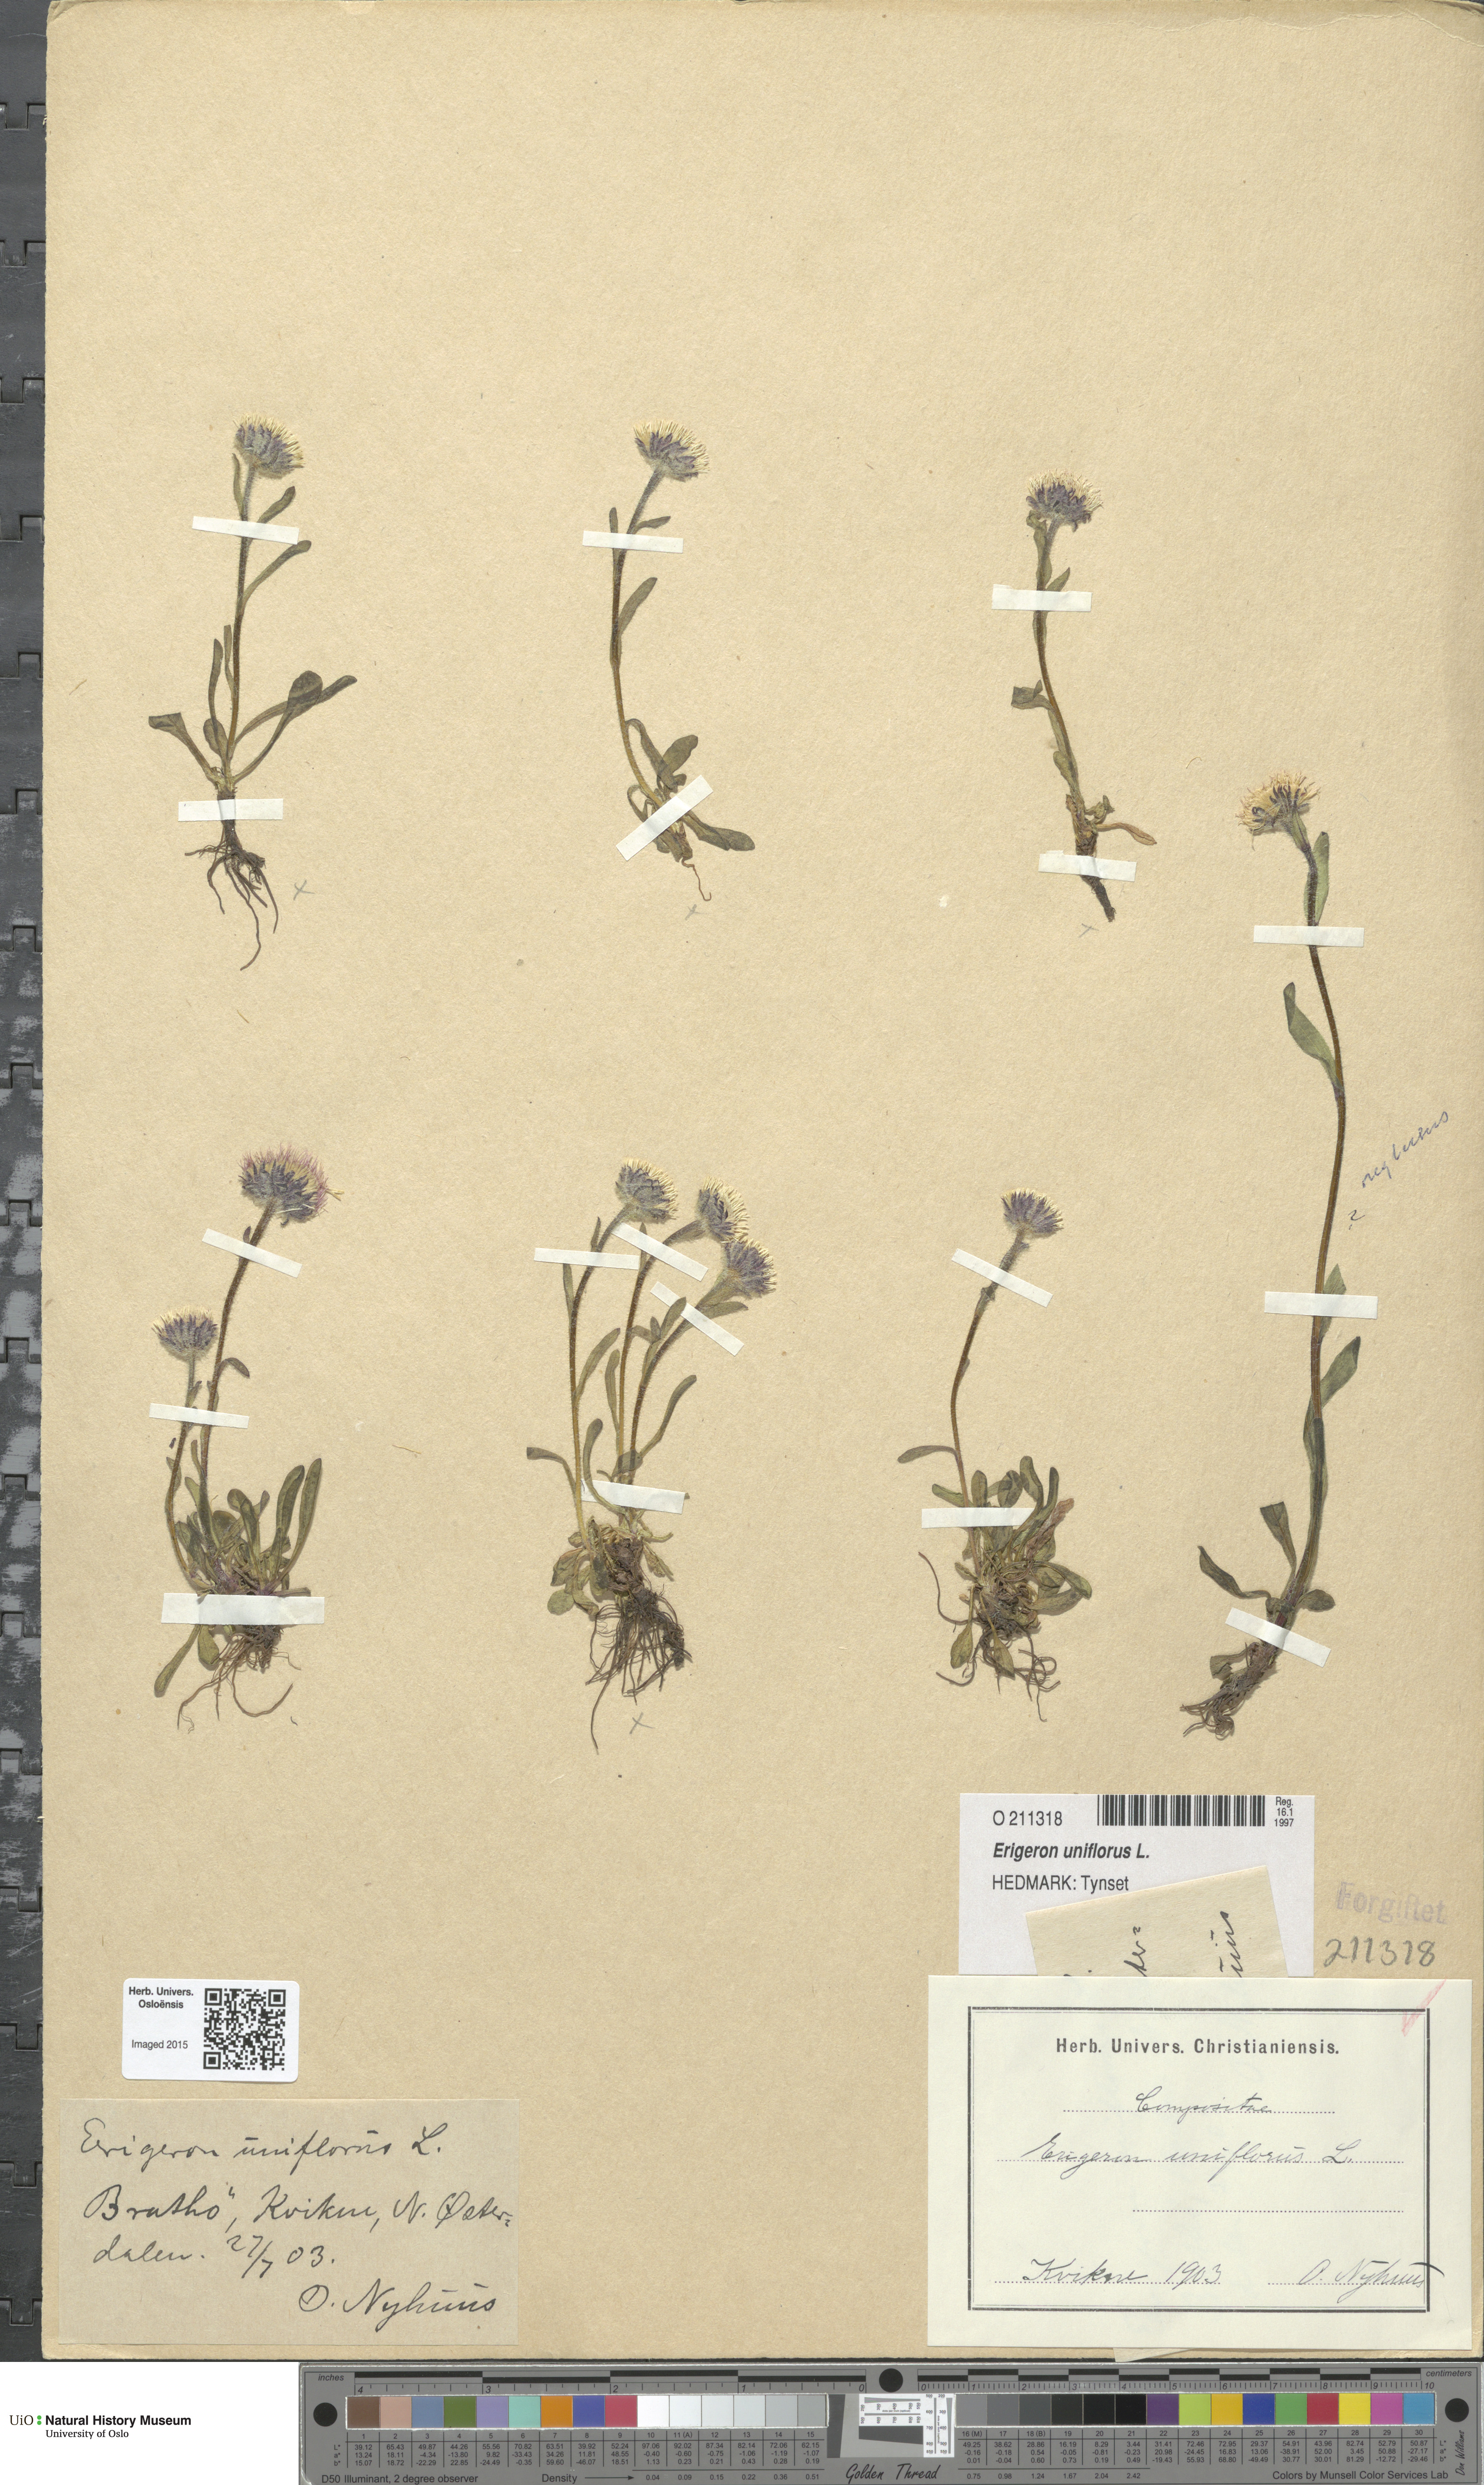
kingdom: Plantae
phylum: Tracheophyta
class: Magnoliopsida
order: Asterales
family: Asteraceae
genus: Erigeron
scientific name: Erigeron uniflorus
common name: Northern daisy
